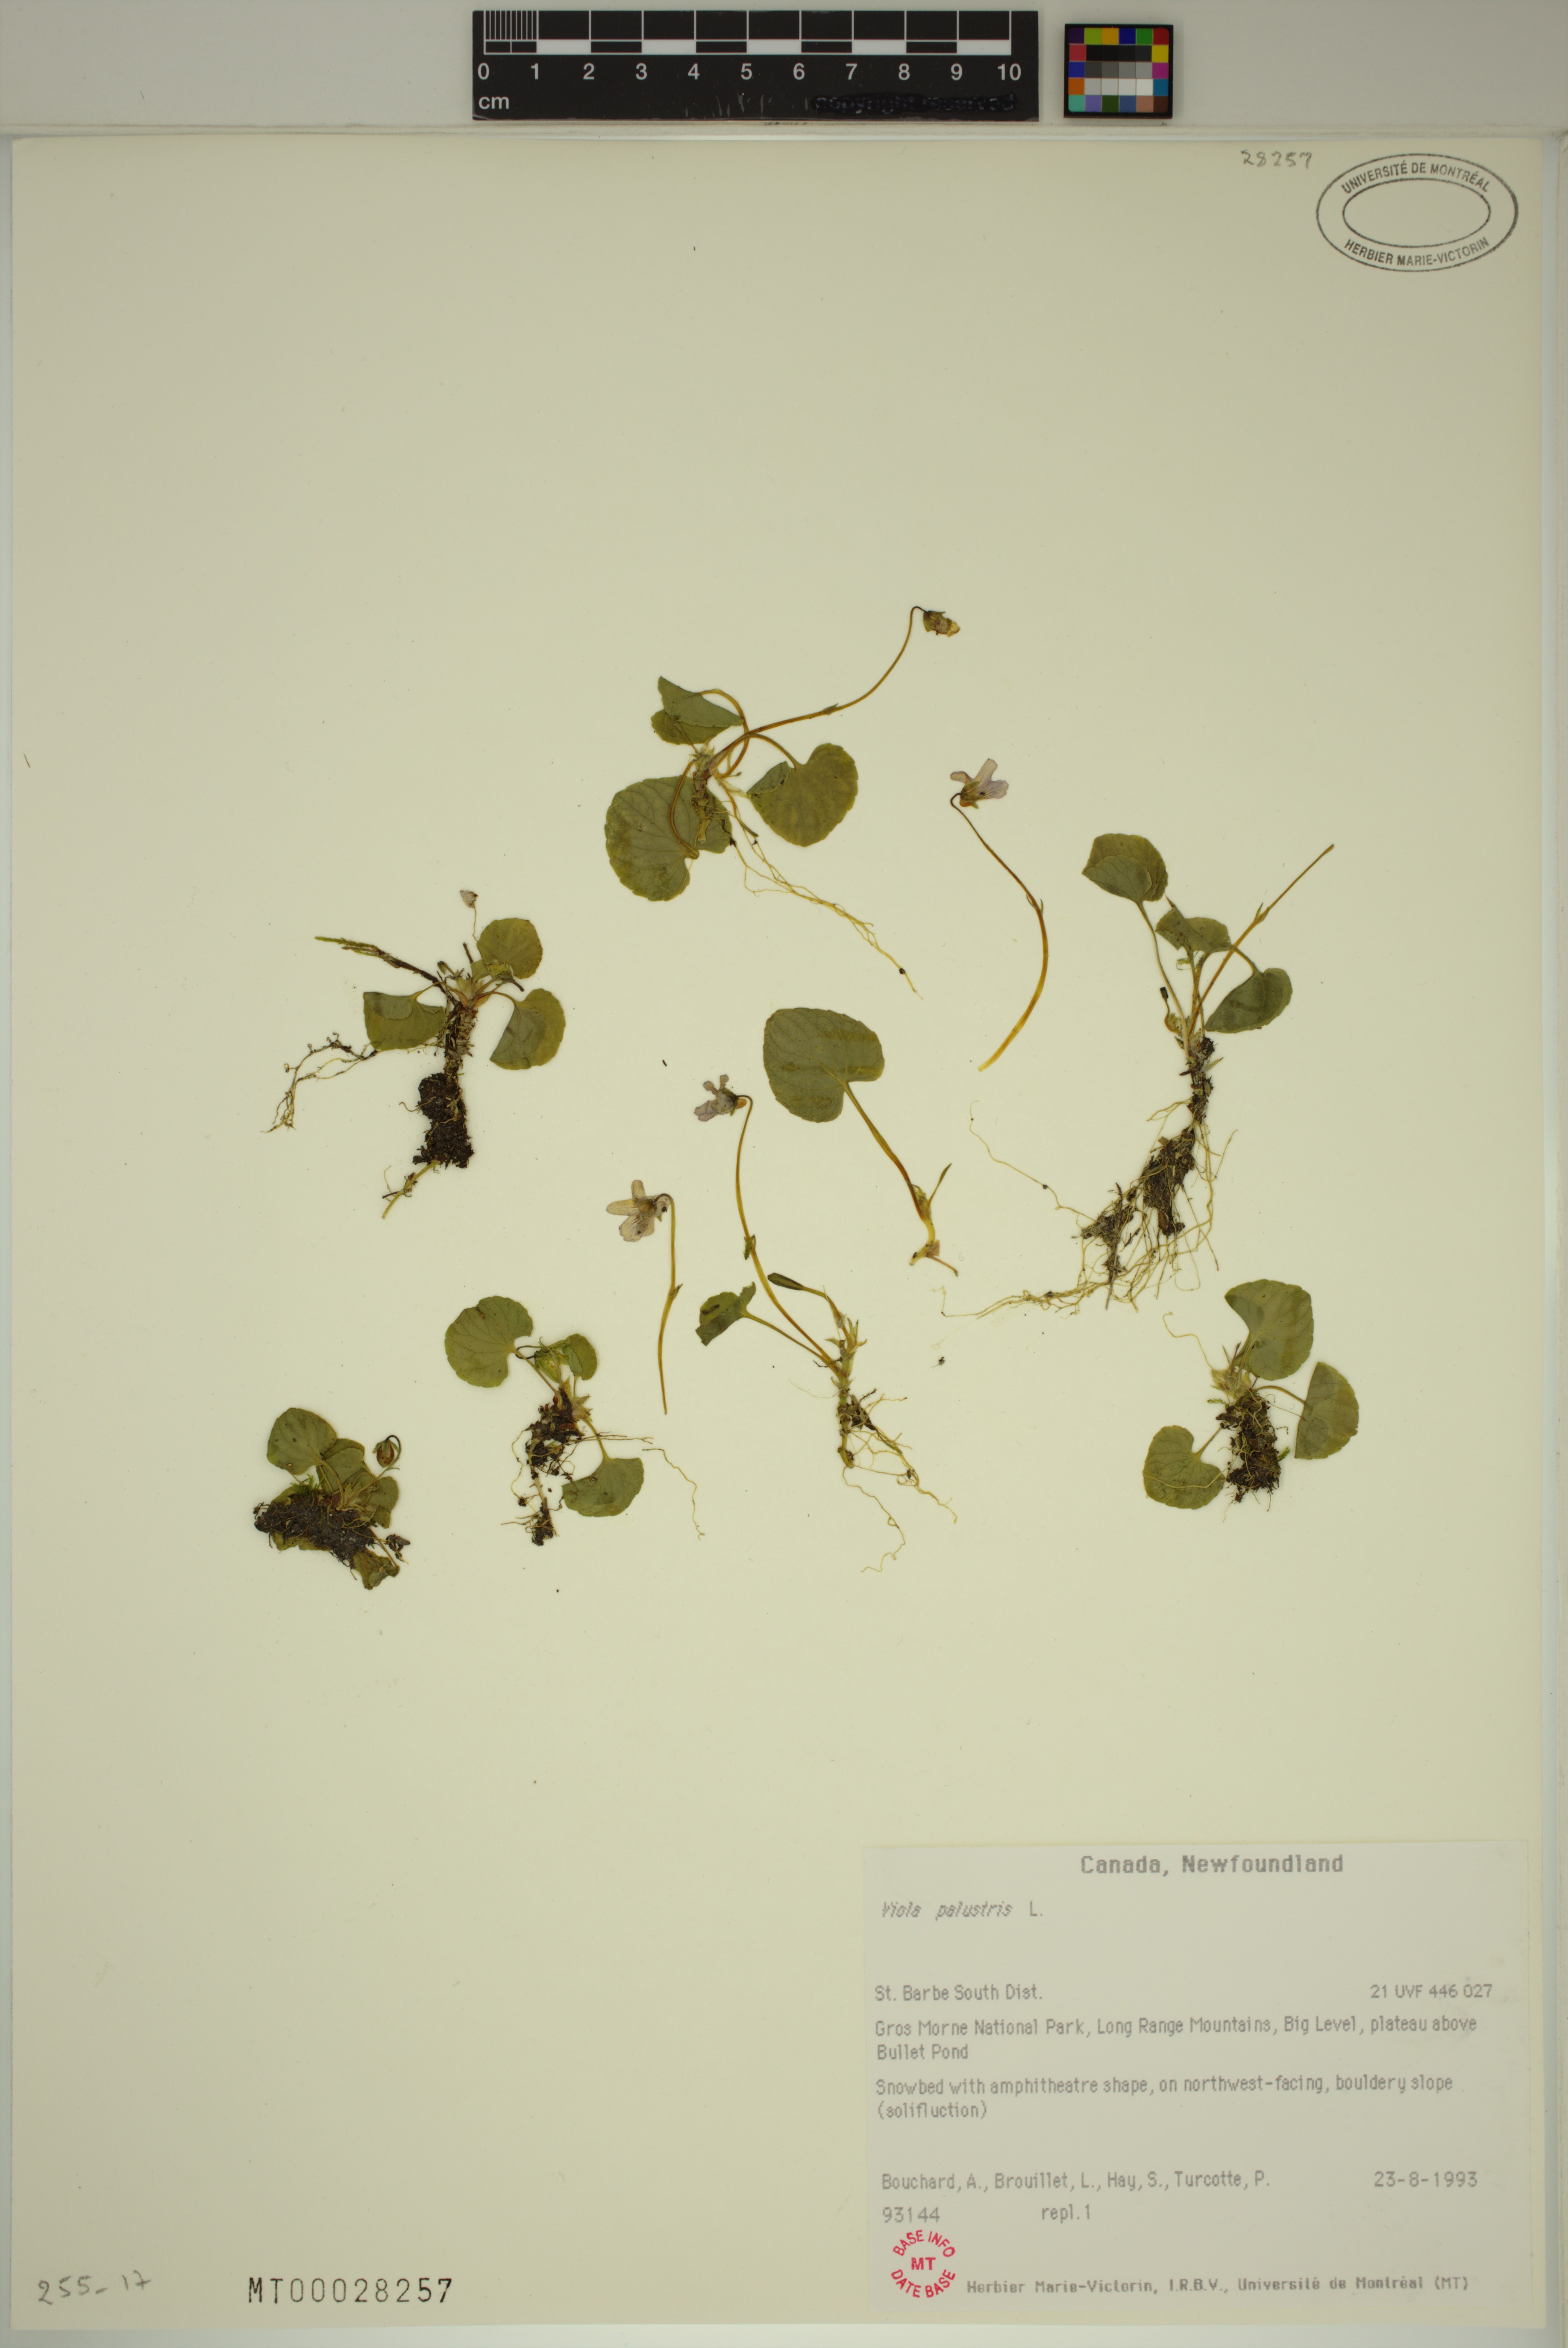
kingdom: Plantae
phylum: Tracheophyta
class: Magnoliopsida
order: Malpighiales
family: Violaceae
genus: Viola
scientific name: Viola palustris
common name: Marsh violet
